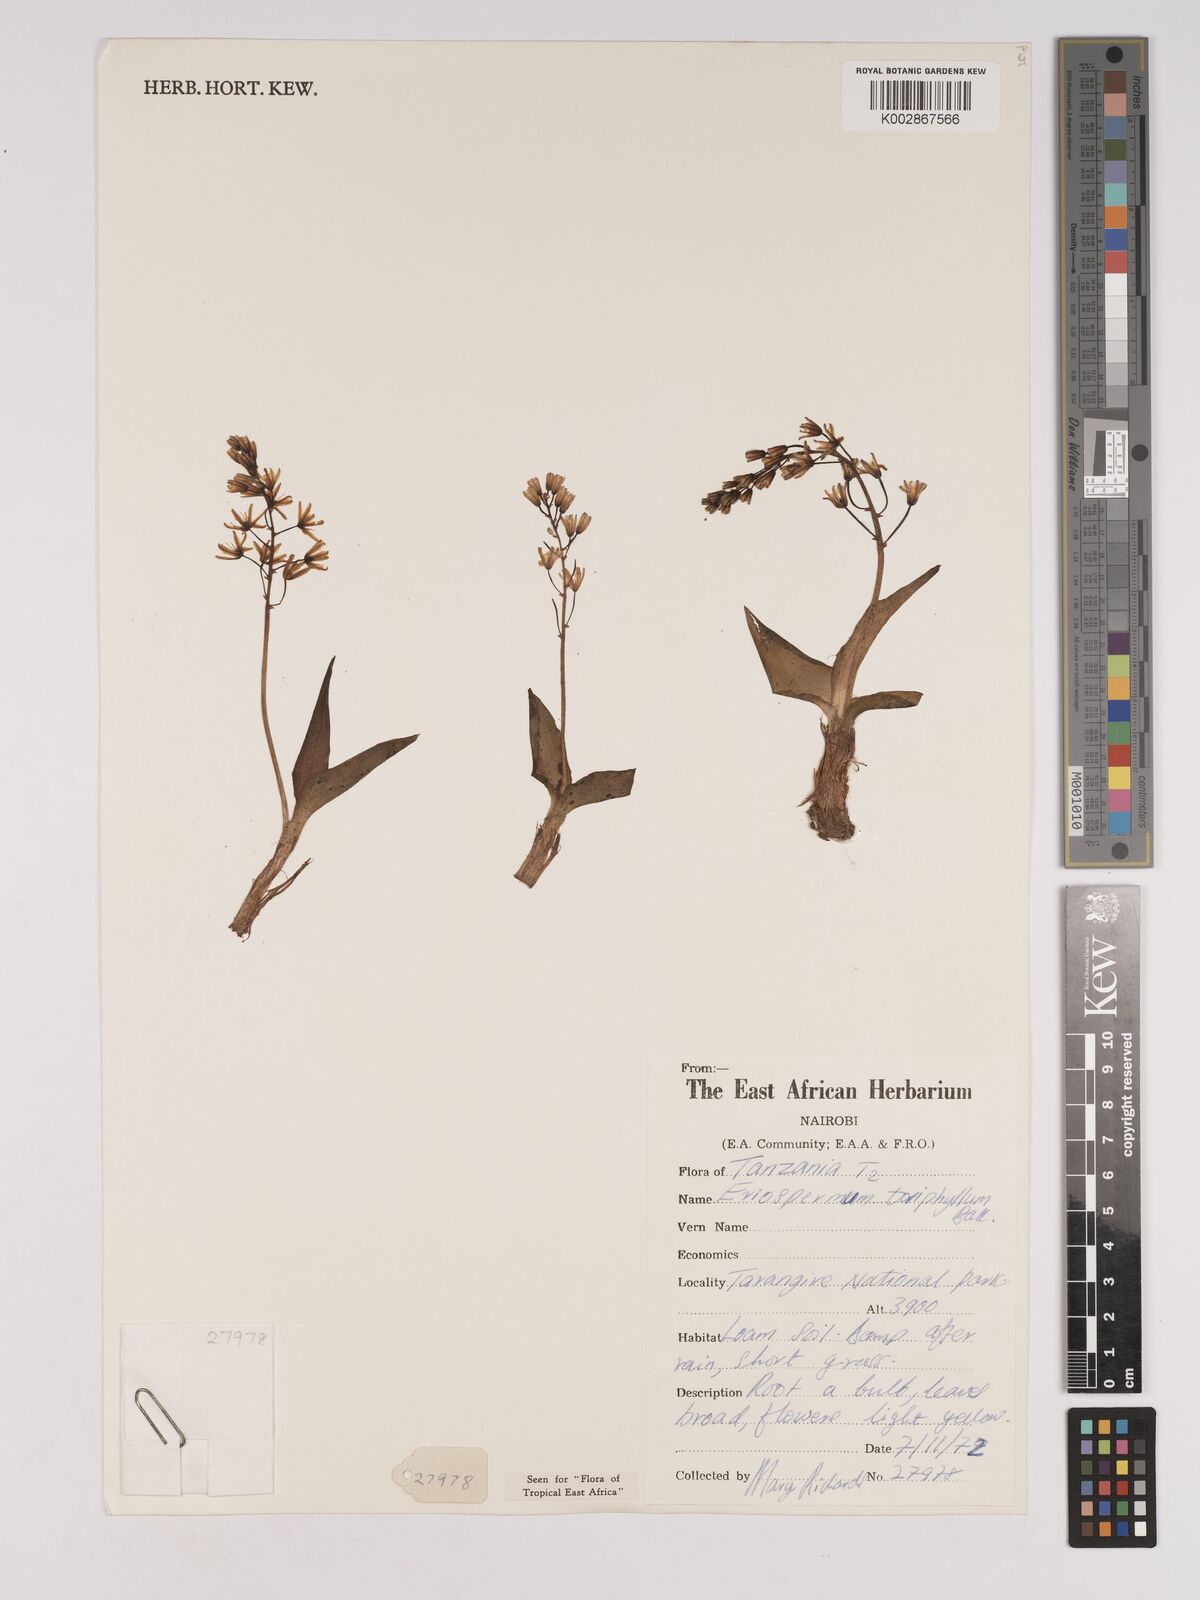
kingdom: Plantae
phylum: Tracheophyta
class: Liliopsida
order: Asparagales
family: Asparagaceae
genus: Eriospermum
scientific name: Eriospermum triphyllum
